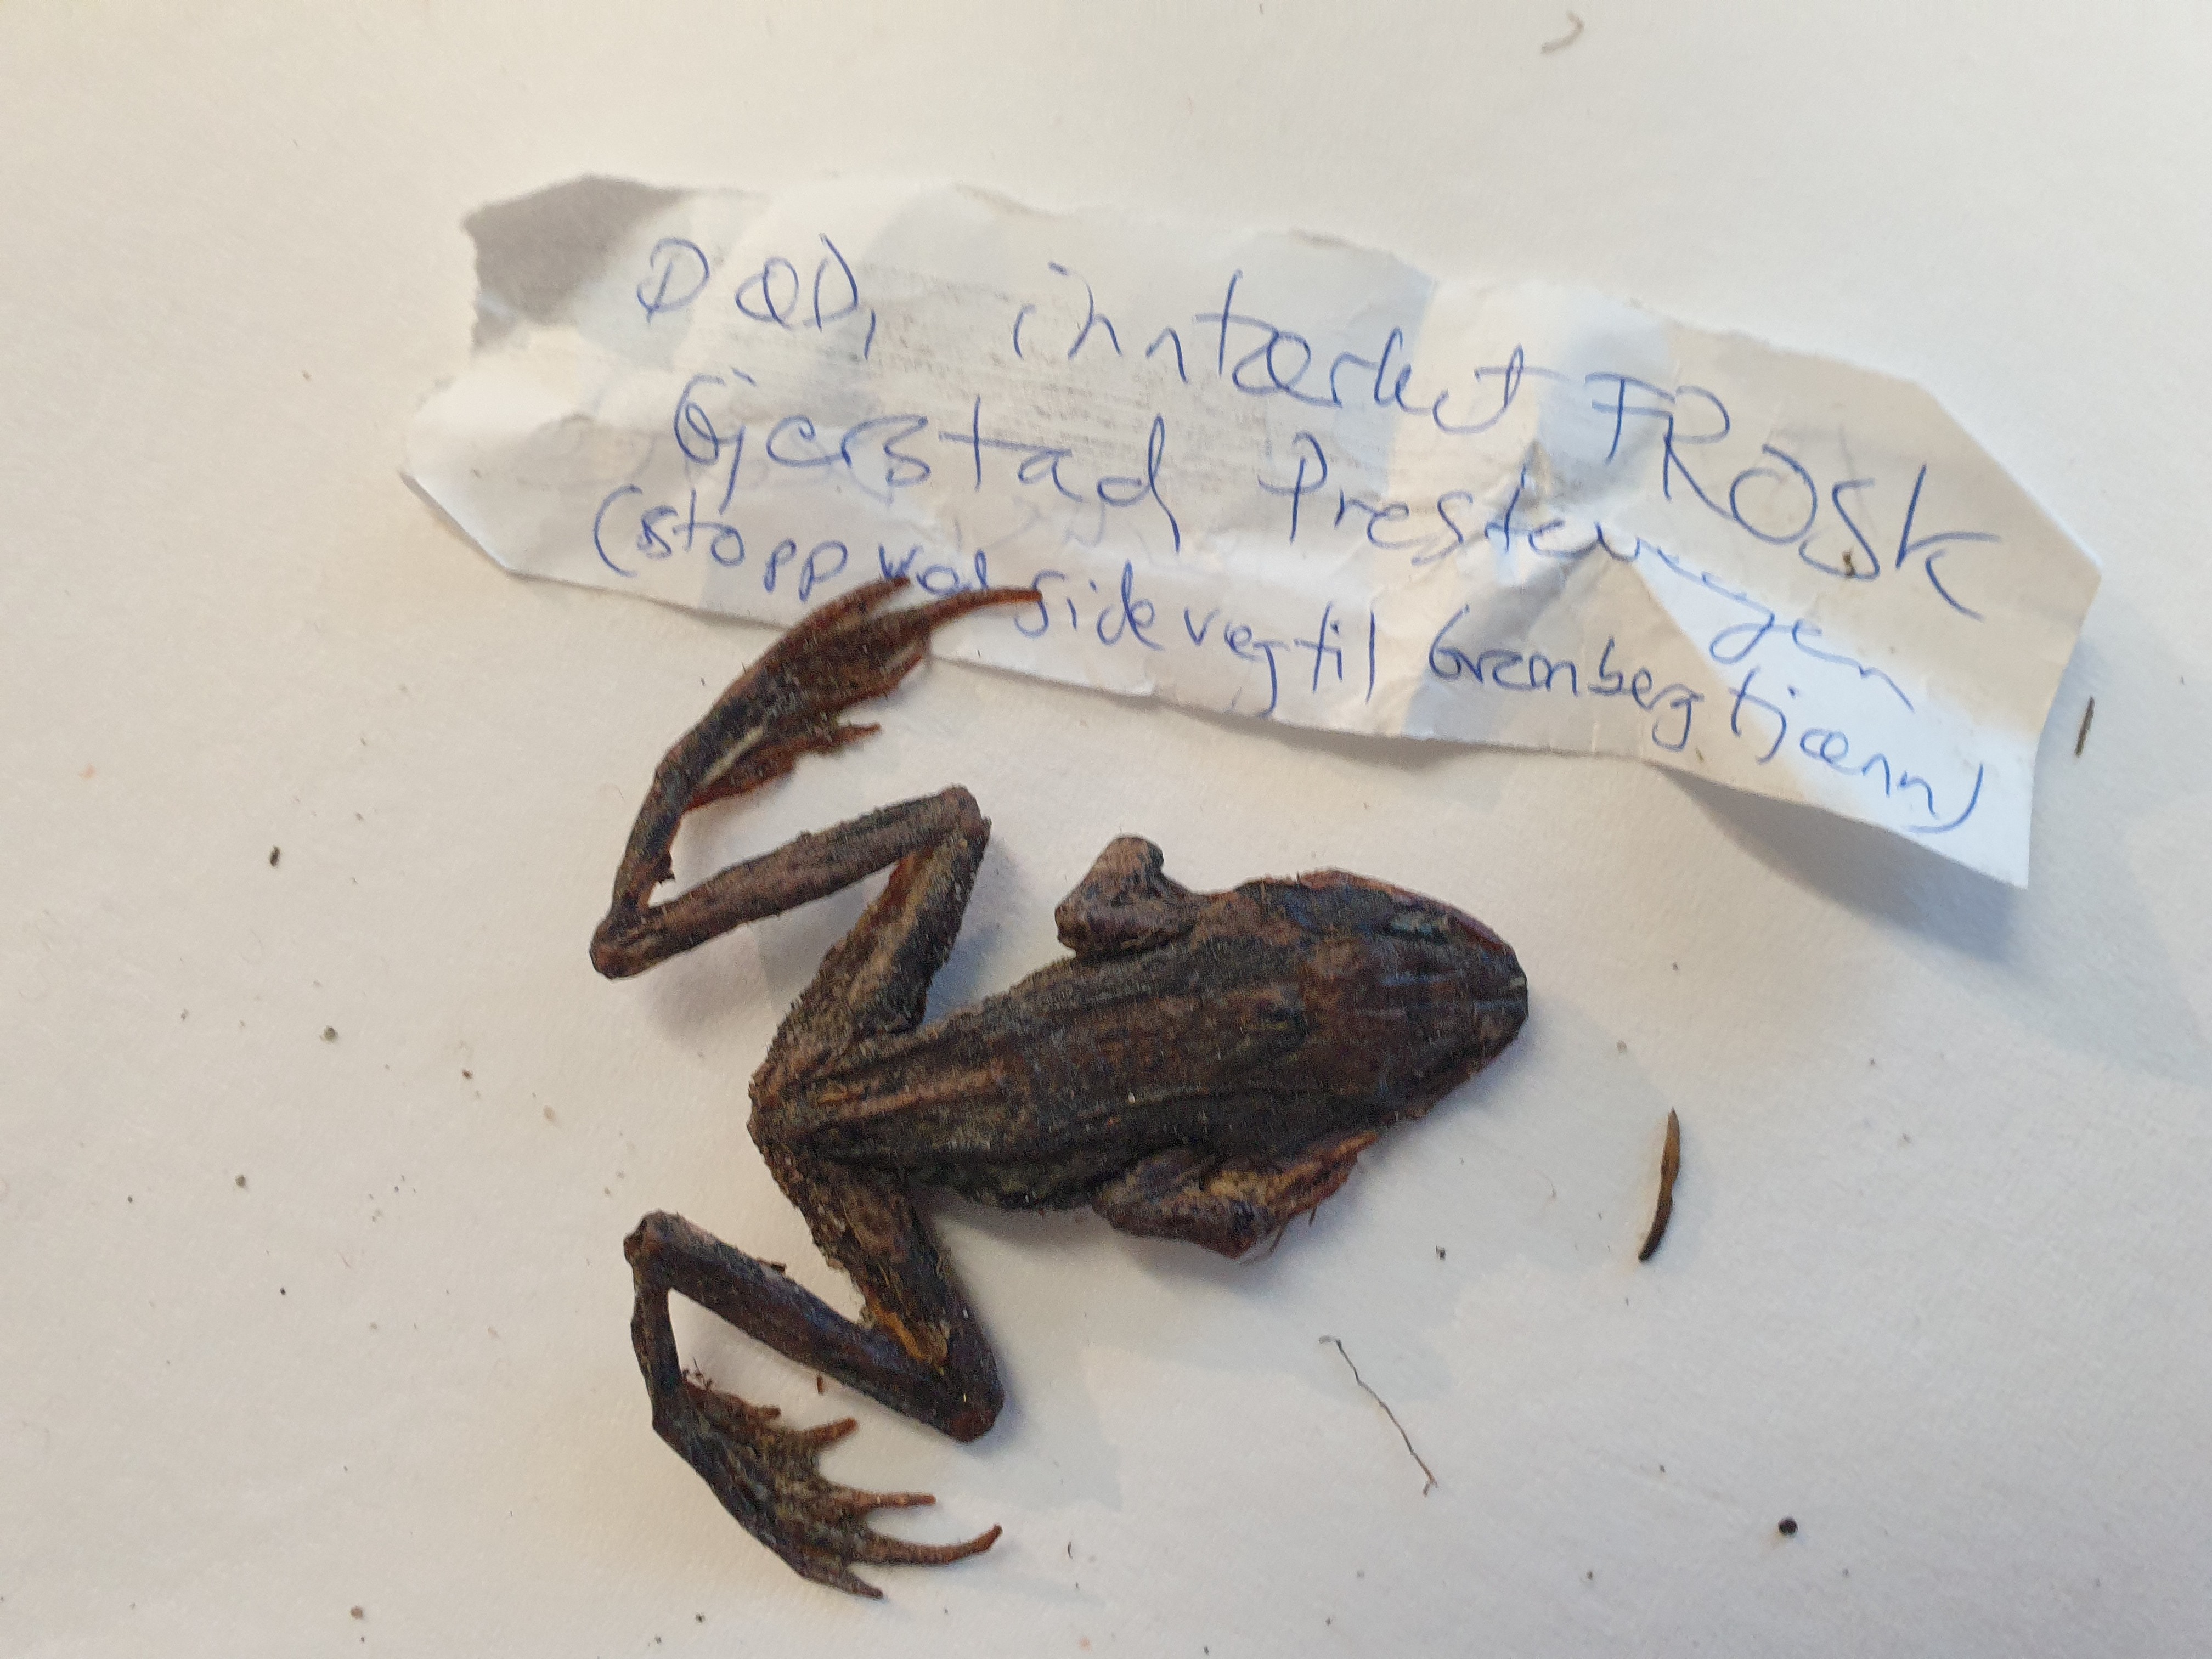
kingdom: Animalia
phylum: Chordata
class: Amphibia
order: Anura
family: Ranidae
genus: Rana
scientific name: Rana temporaria
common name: Common frog
